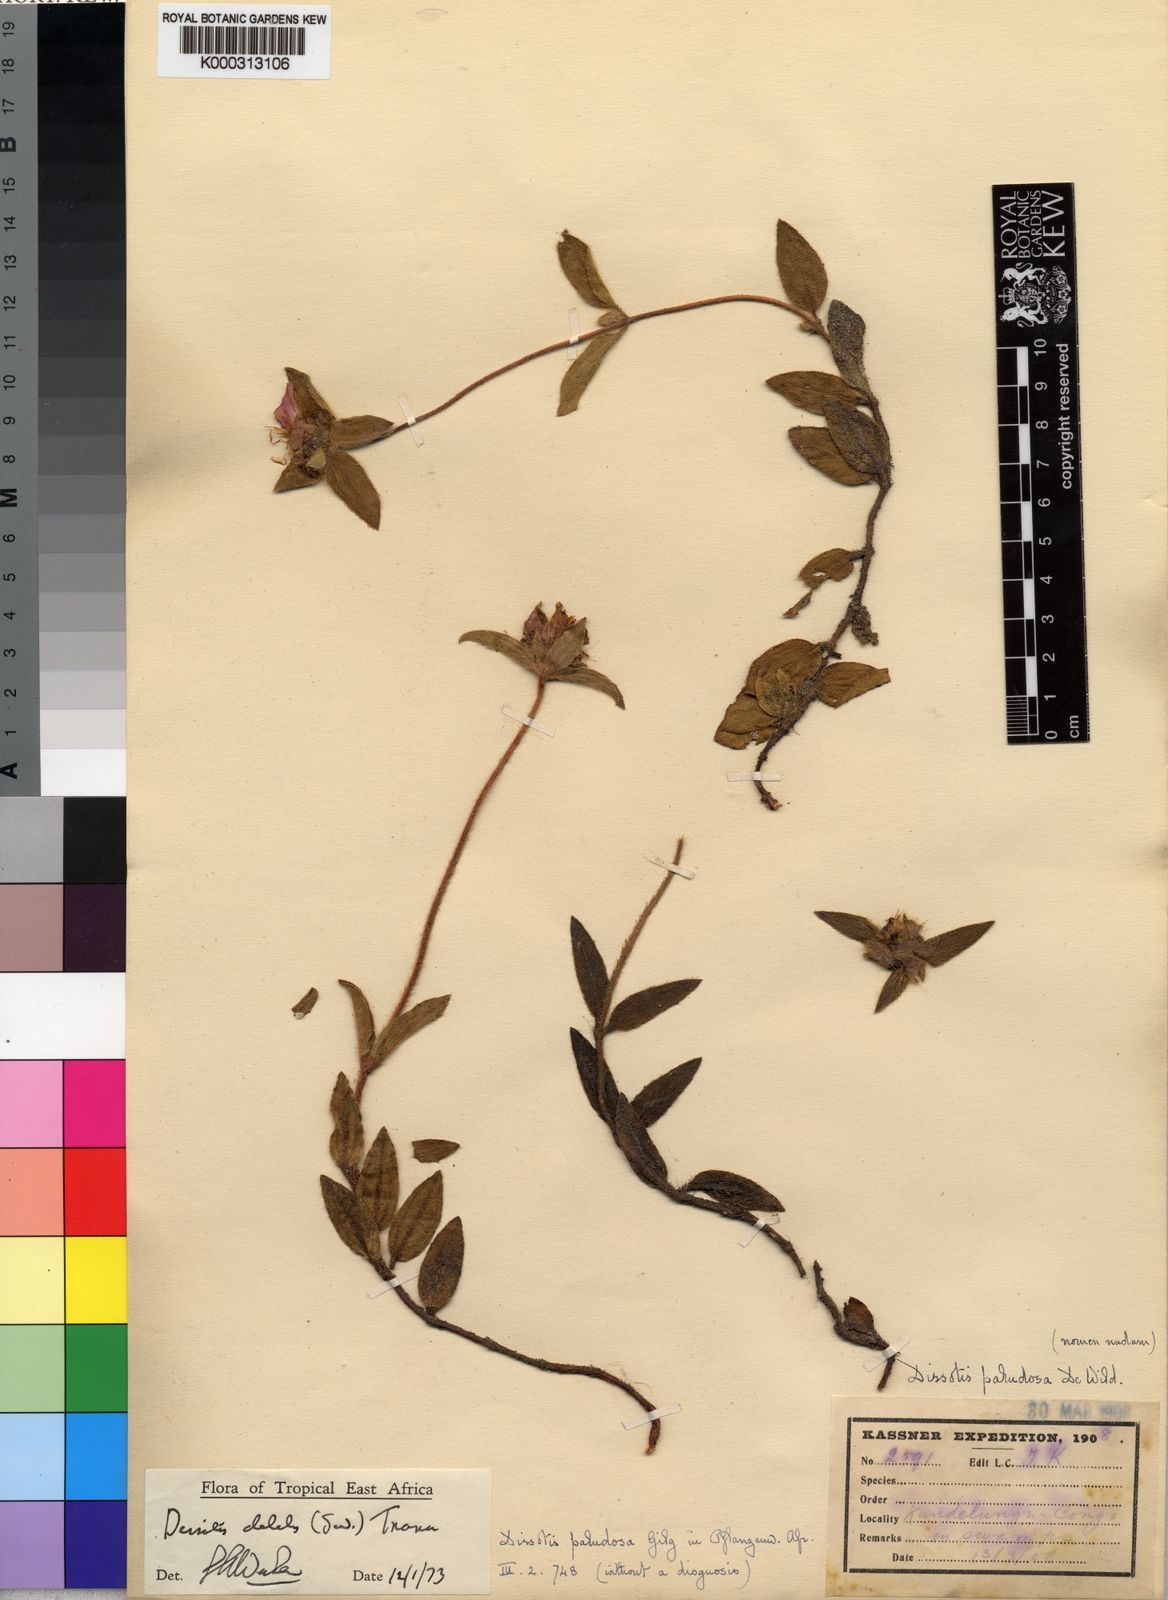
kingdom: Plantae
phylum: Tracheophyta
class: Magnoliopsida
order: Myrtales
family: Melastomataceae
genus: Antherotoma
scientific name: Antherotoma
